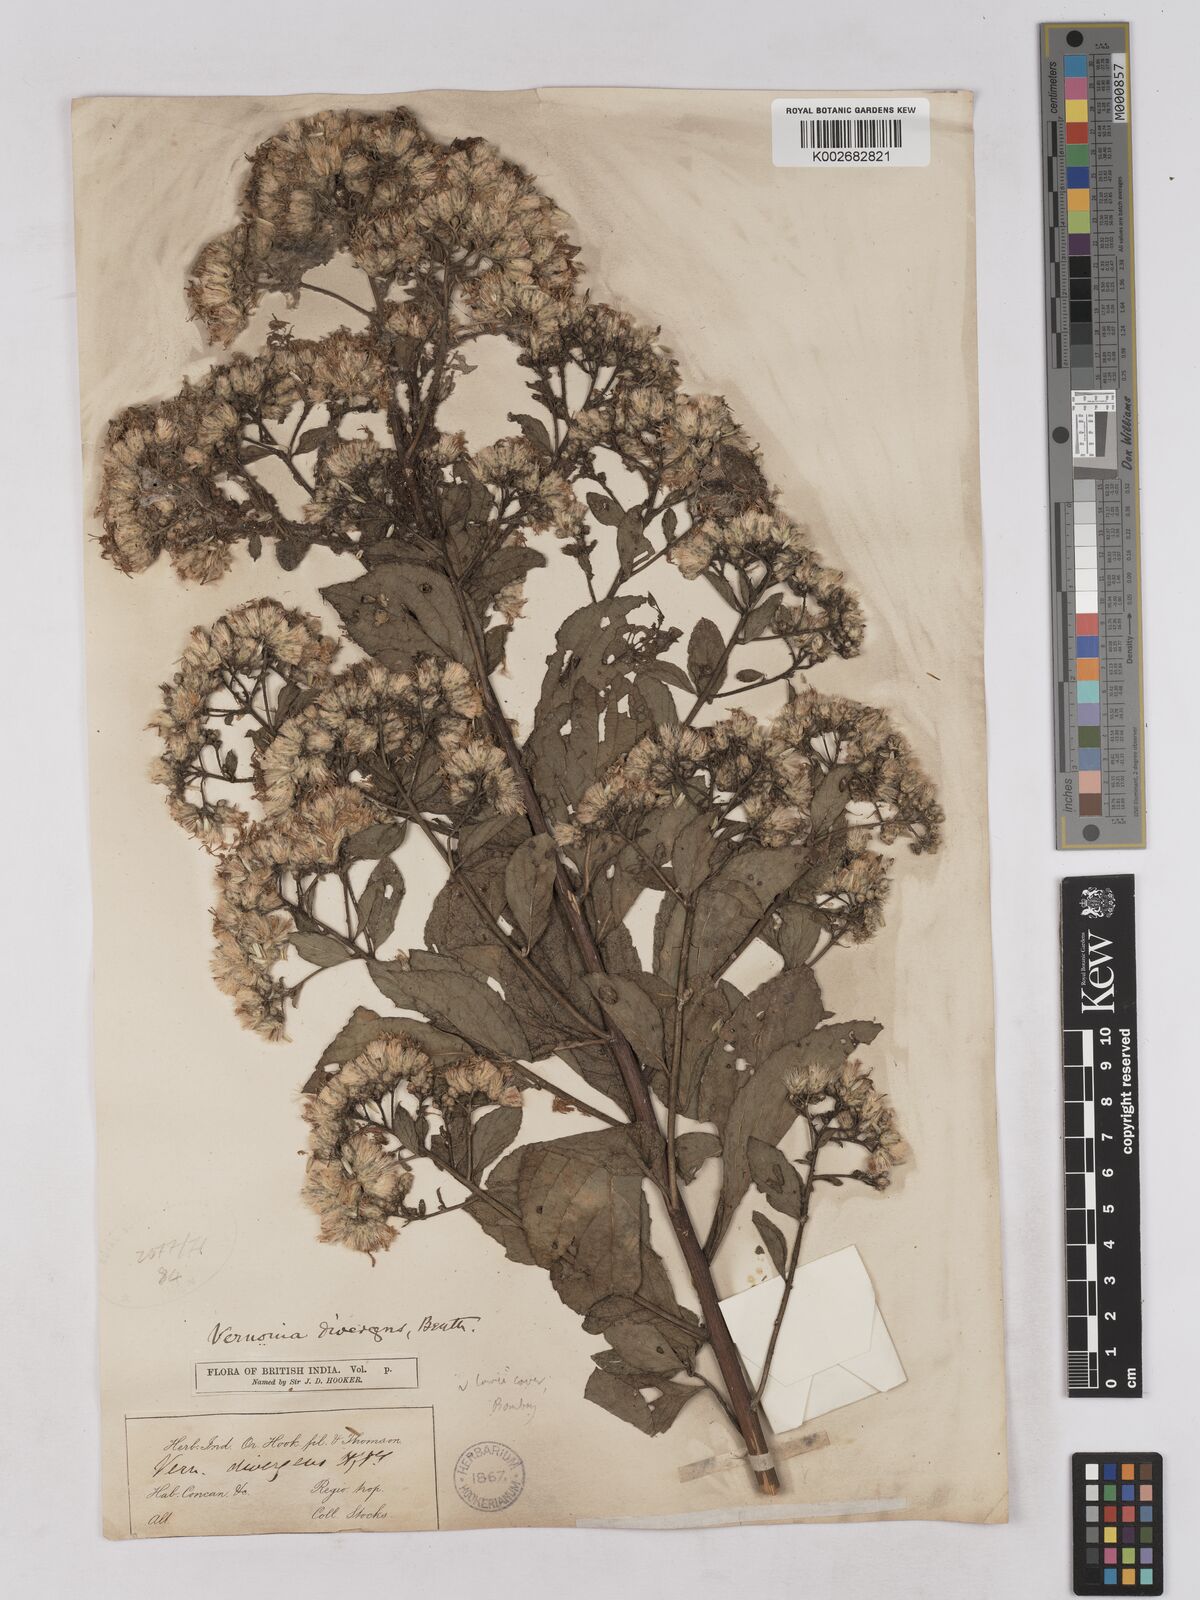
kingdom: Plantae
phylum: Tracheophyta
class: Magnoliopsida
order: Asterales
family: Asteraceae
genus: Acilepis
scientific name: Acilepis divergens
